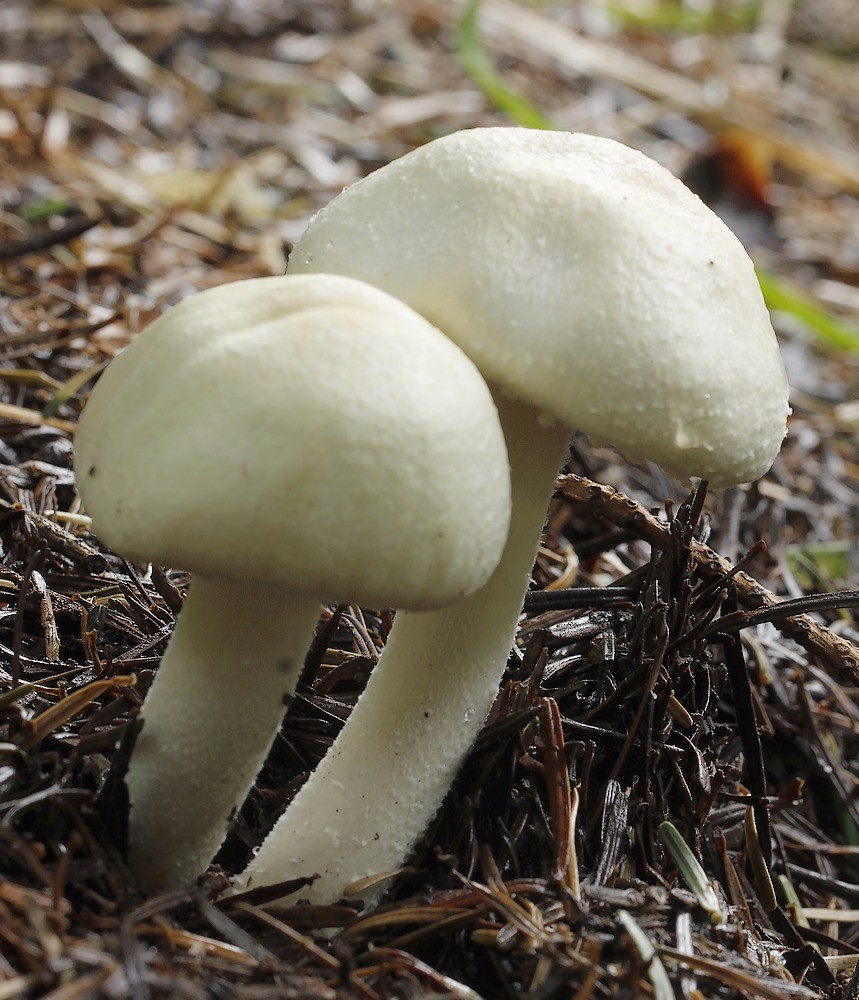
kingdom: Fungi
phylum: Basidiomycota
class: Agaricomycetes
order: Agaricales
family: Agaricaceae
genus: Agaricus
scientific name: Agaricus sylvicola
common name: gulhvid champignon
